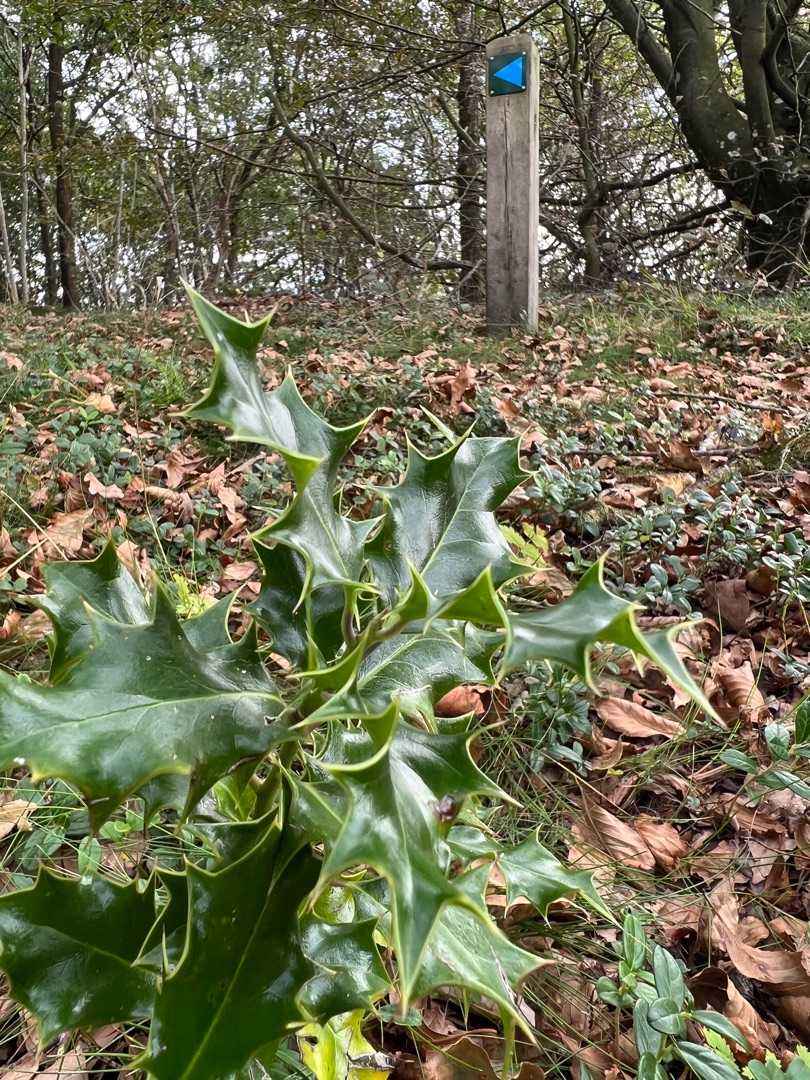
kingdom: Plantae
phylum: Tracheophyta
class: Magnoliopsida
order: Aquifoliales
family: Aquifoliaceae
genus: Ilex
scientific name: Ilex aquifolium
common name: Kristtorn
